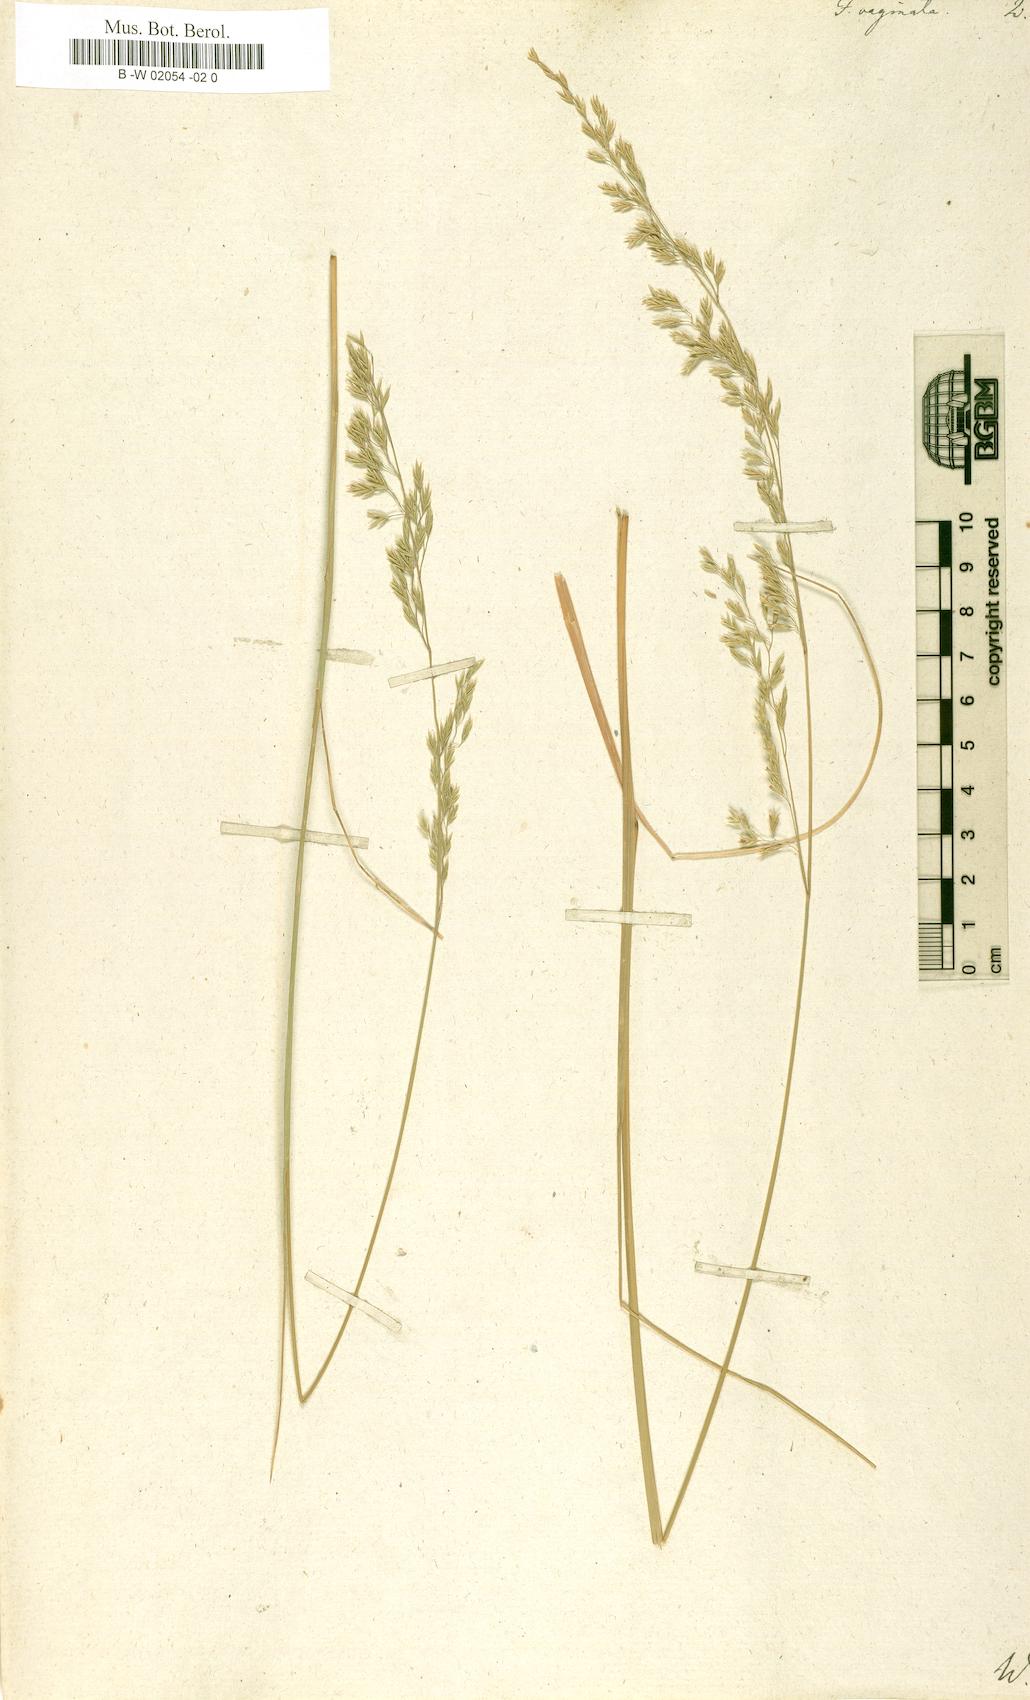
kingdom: Plantae
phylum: Tracheophyta
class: Liliopsida
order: Poales
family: Poaceae
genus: Festuca
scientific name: Festuca vaginata
